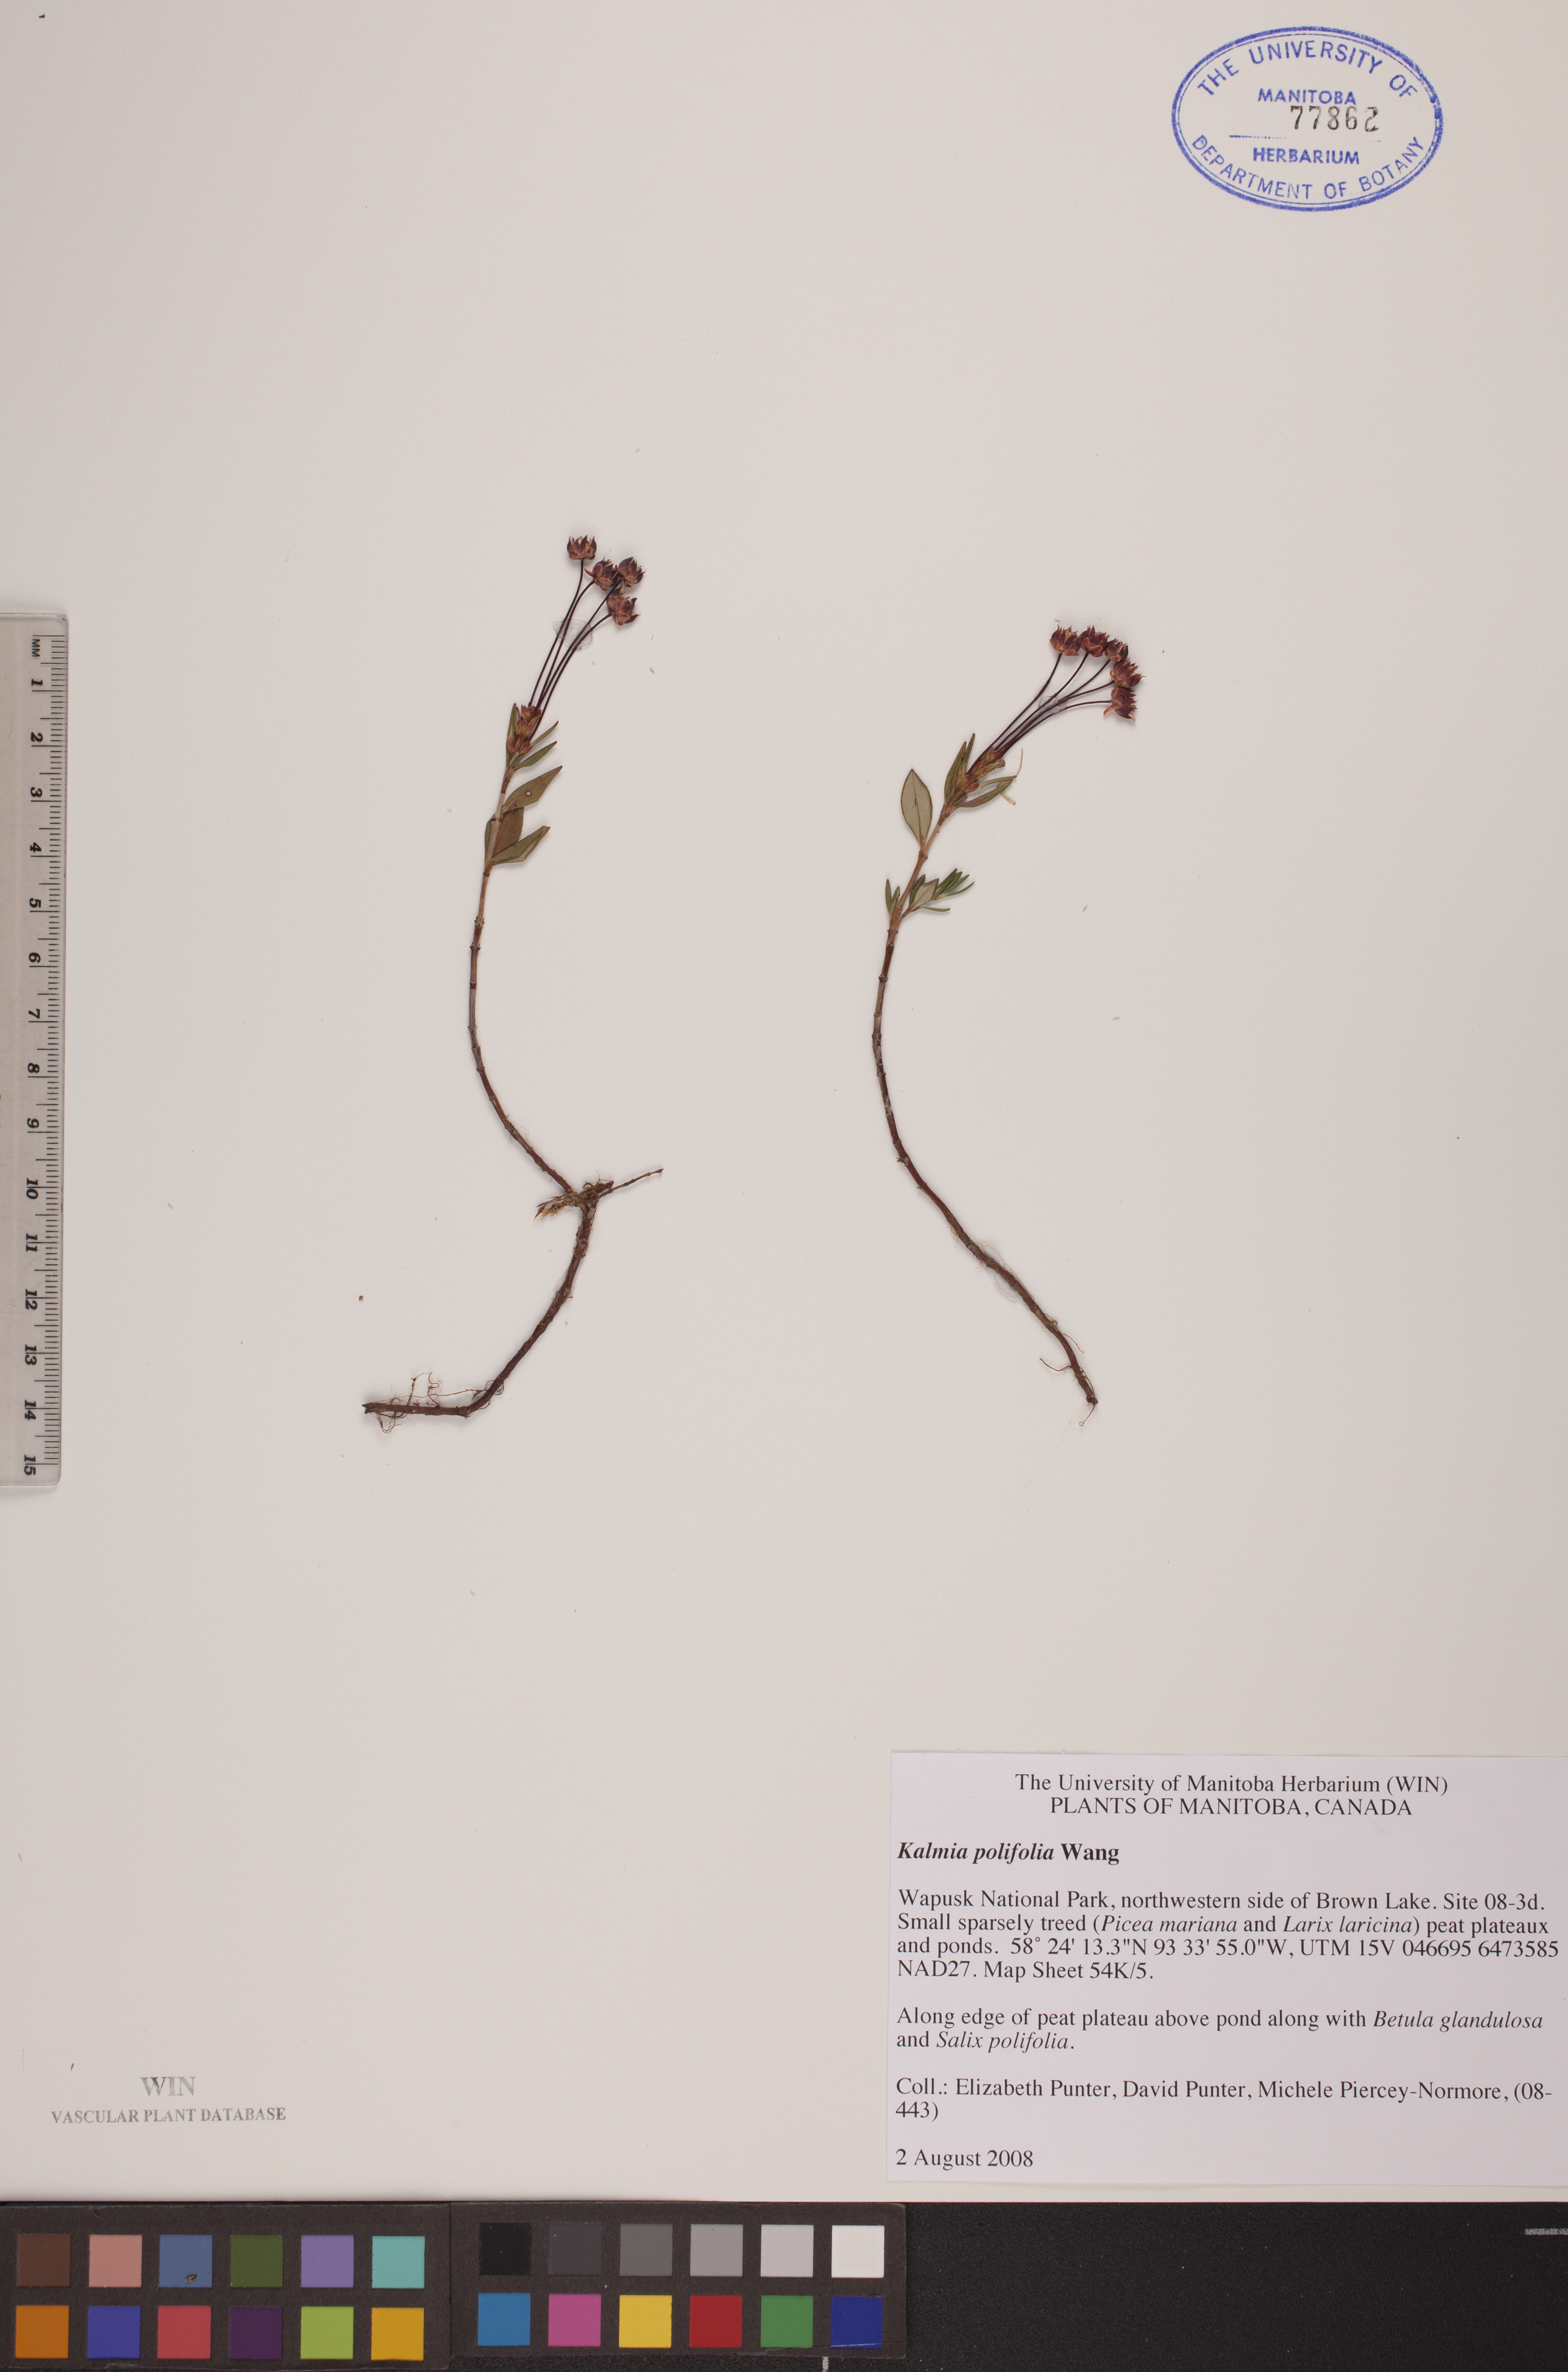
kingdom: Plantae
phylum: Tracheophyta
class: Magnoliopsida
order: Ericales
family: Ericaceae
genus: Kalmia
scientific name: Kalmia polifolia
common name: Bog-laurel
